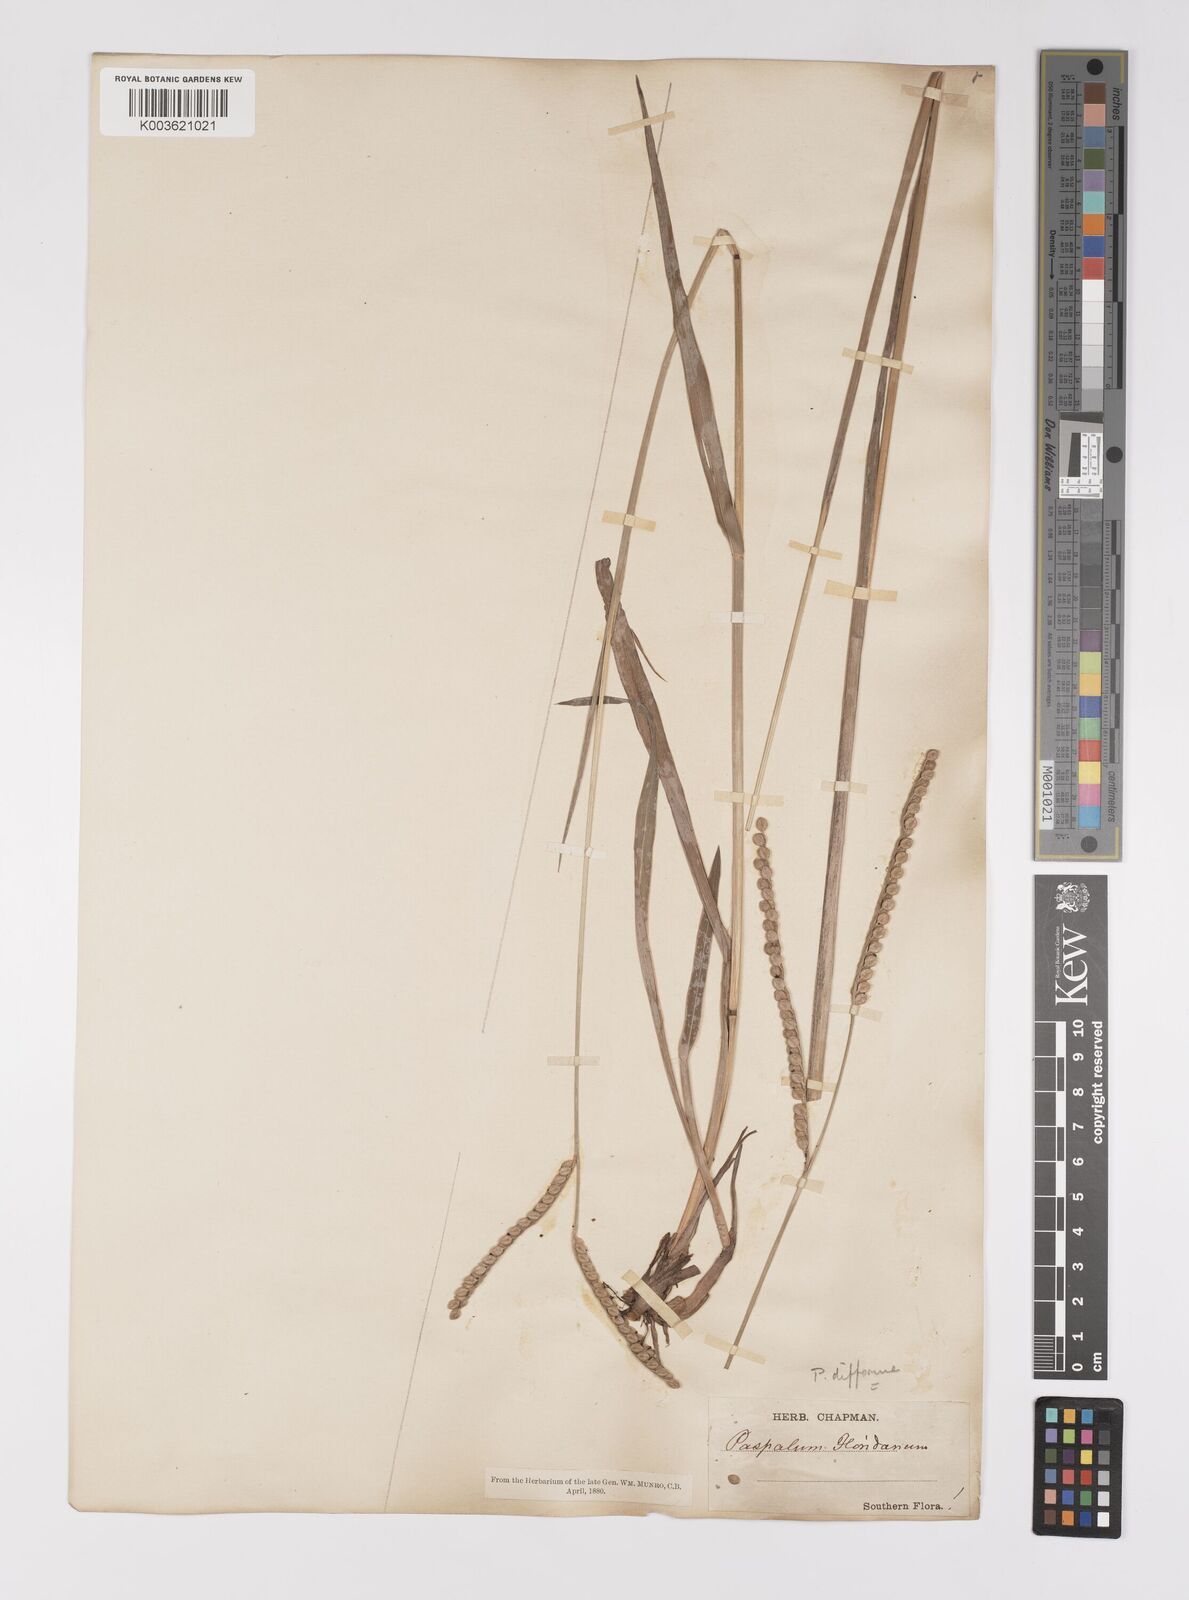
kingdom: Plantae
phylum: Tracheophyta
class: Liliopsida
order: Poales
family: Poaceae
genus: Paspalum
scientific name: Paspalum floridanum
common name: Florida paspalum
